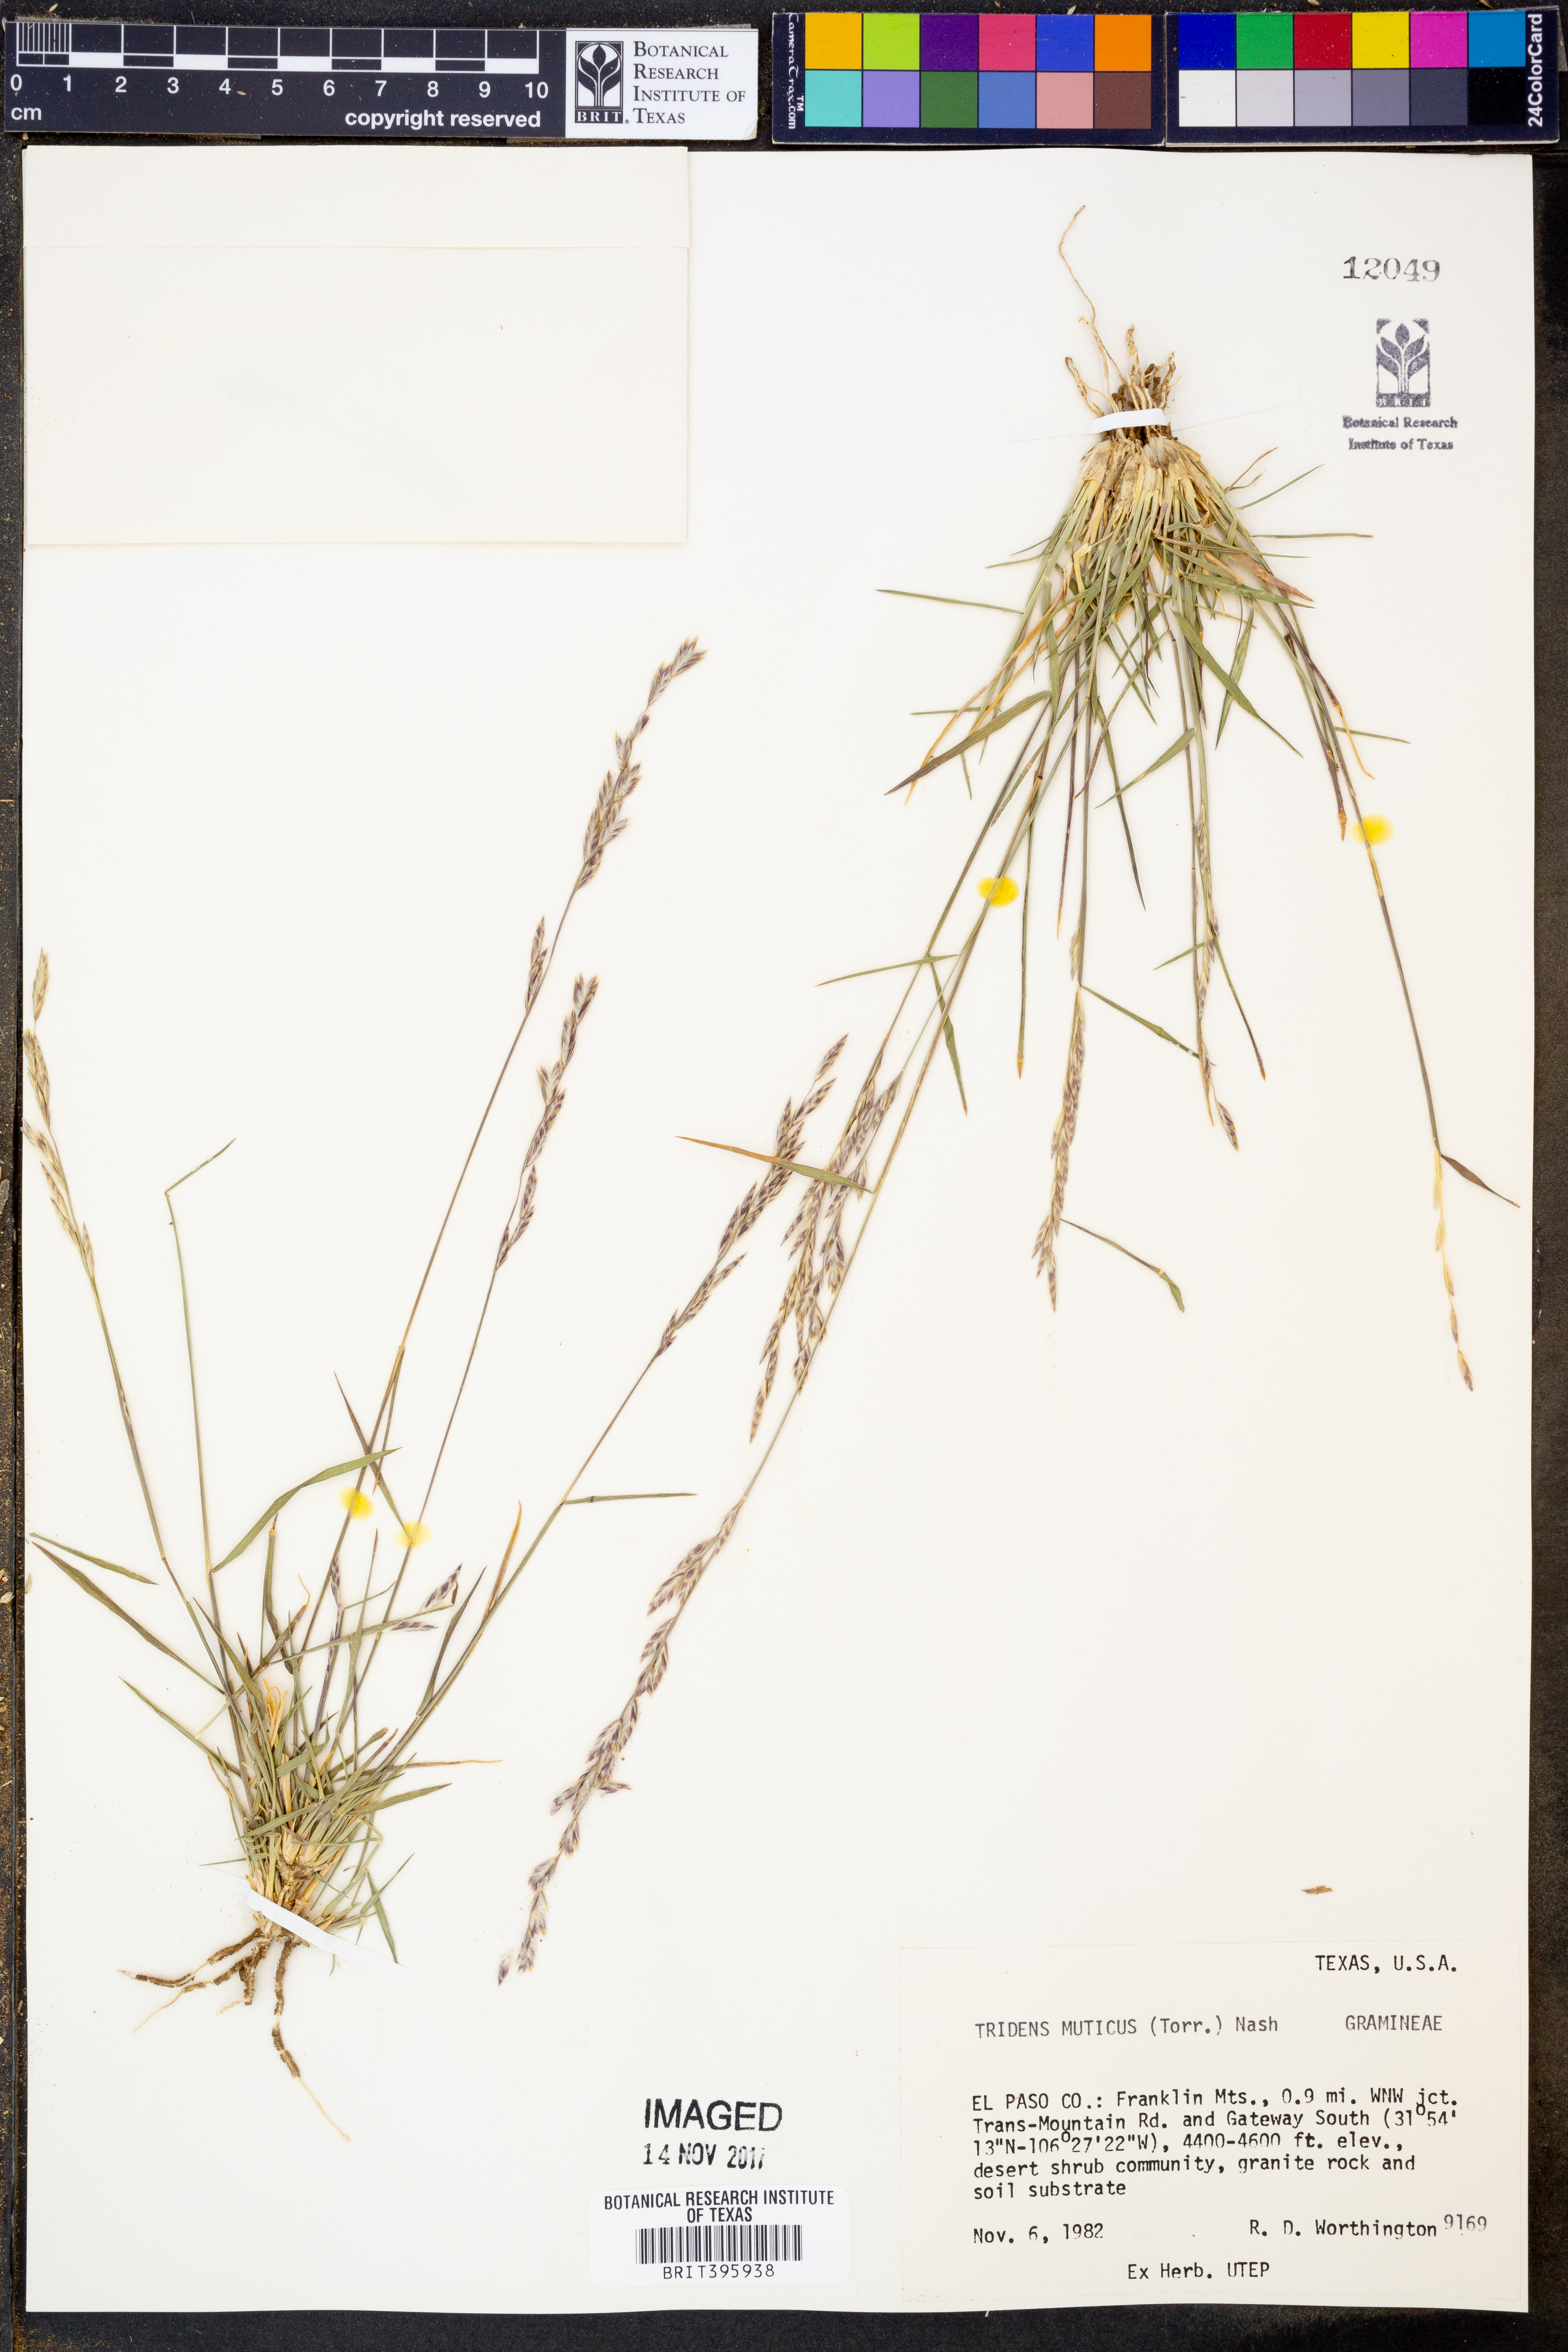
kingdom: Plantae
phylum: Tracheophyta
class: Liliopsida
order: Poales
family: Poaceae
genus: Tridentopsis
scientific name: Tridentopsis mutica
